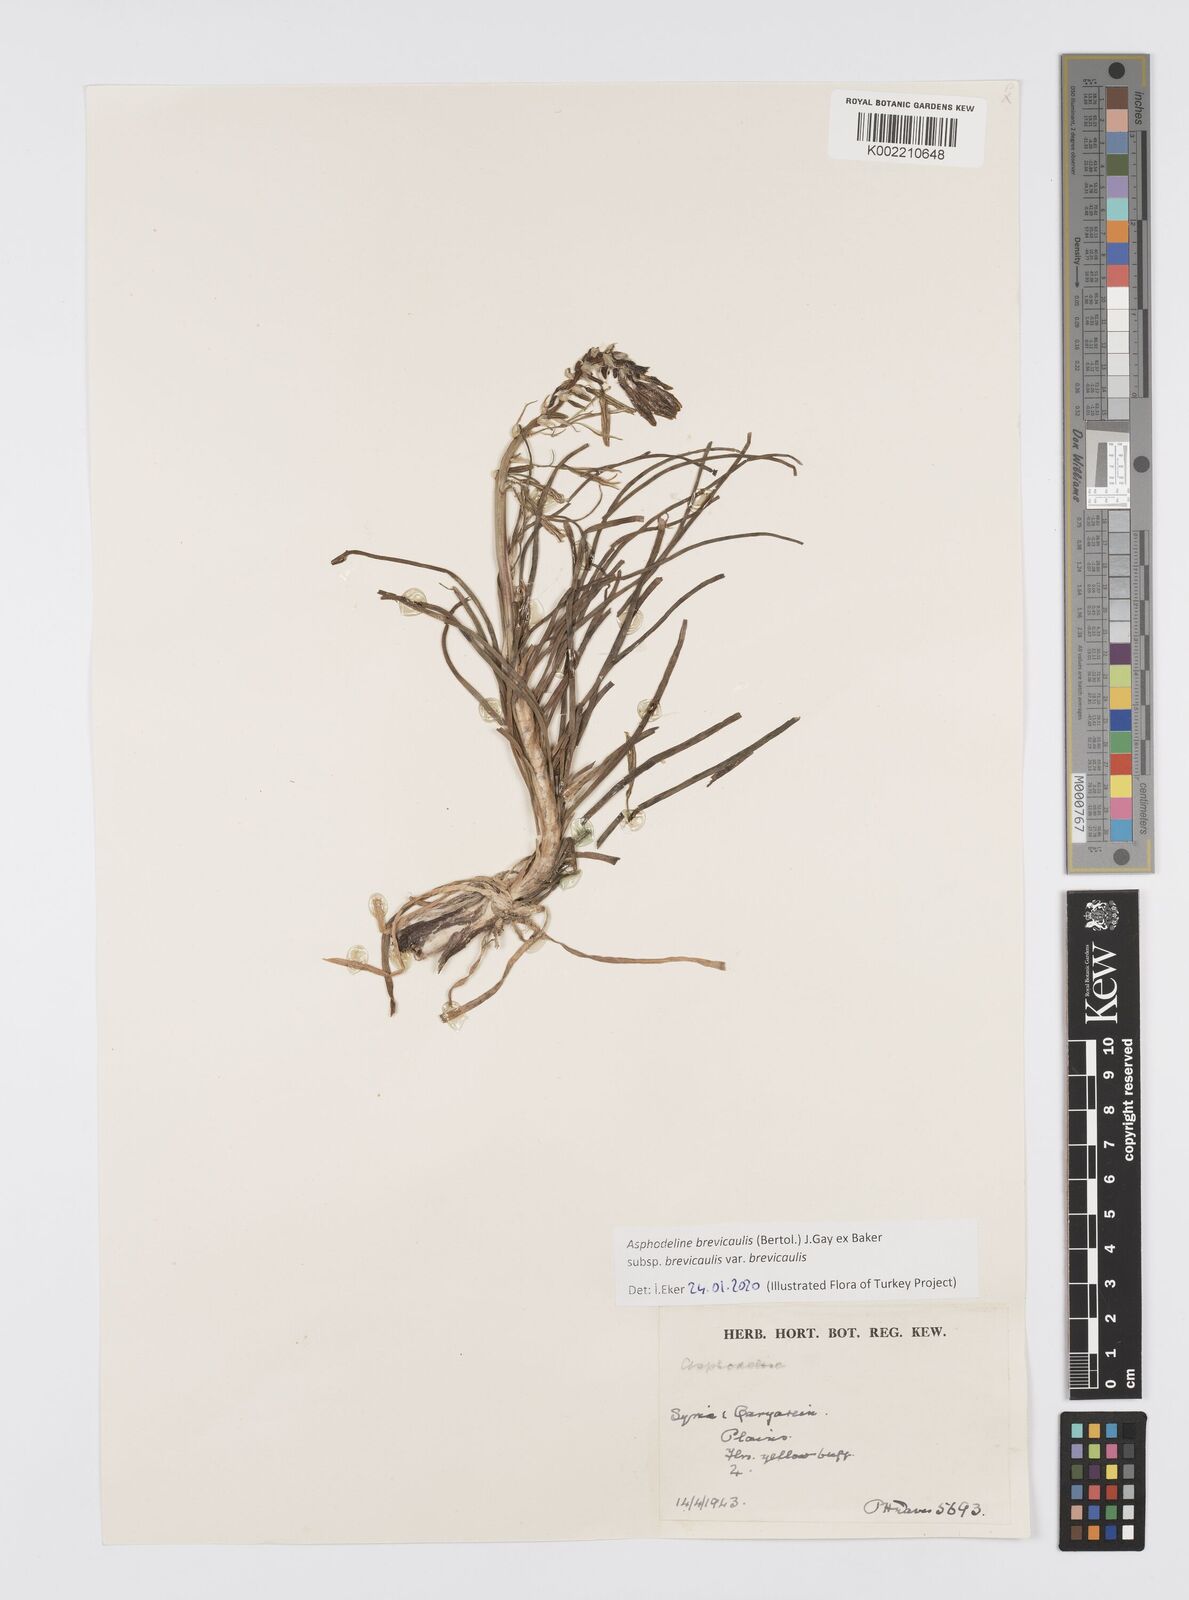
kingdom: Plantae
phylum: Tracheophyta
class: Liliopsida
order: Asparagales
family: Asphodelaceae
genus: Asphodeline
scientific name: Asphodeline brevicaulis
